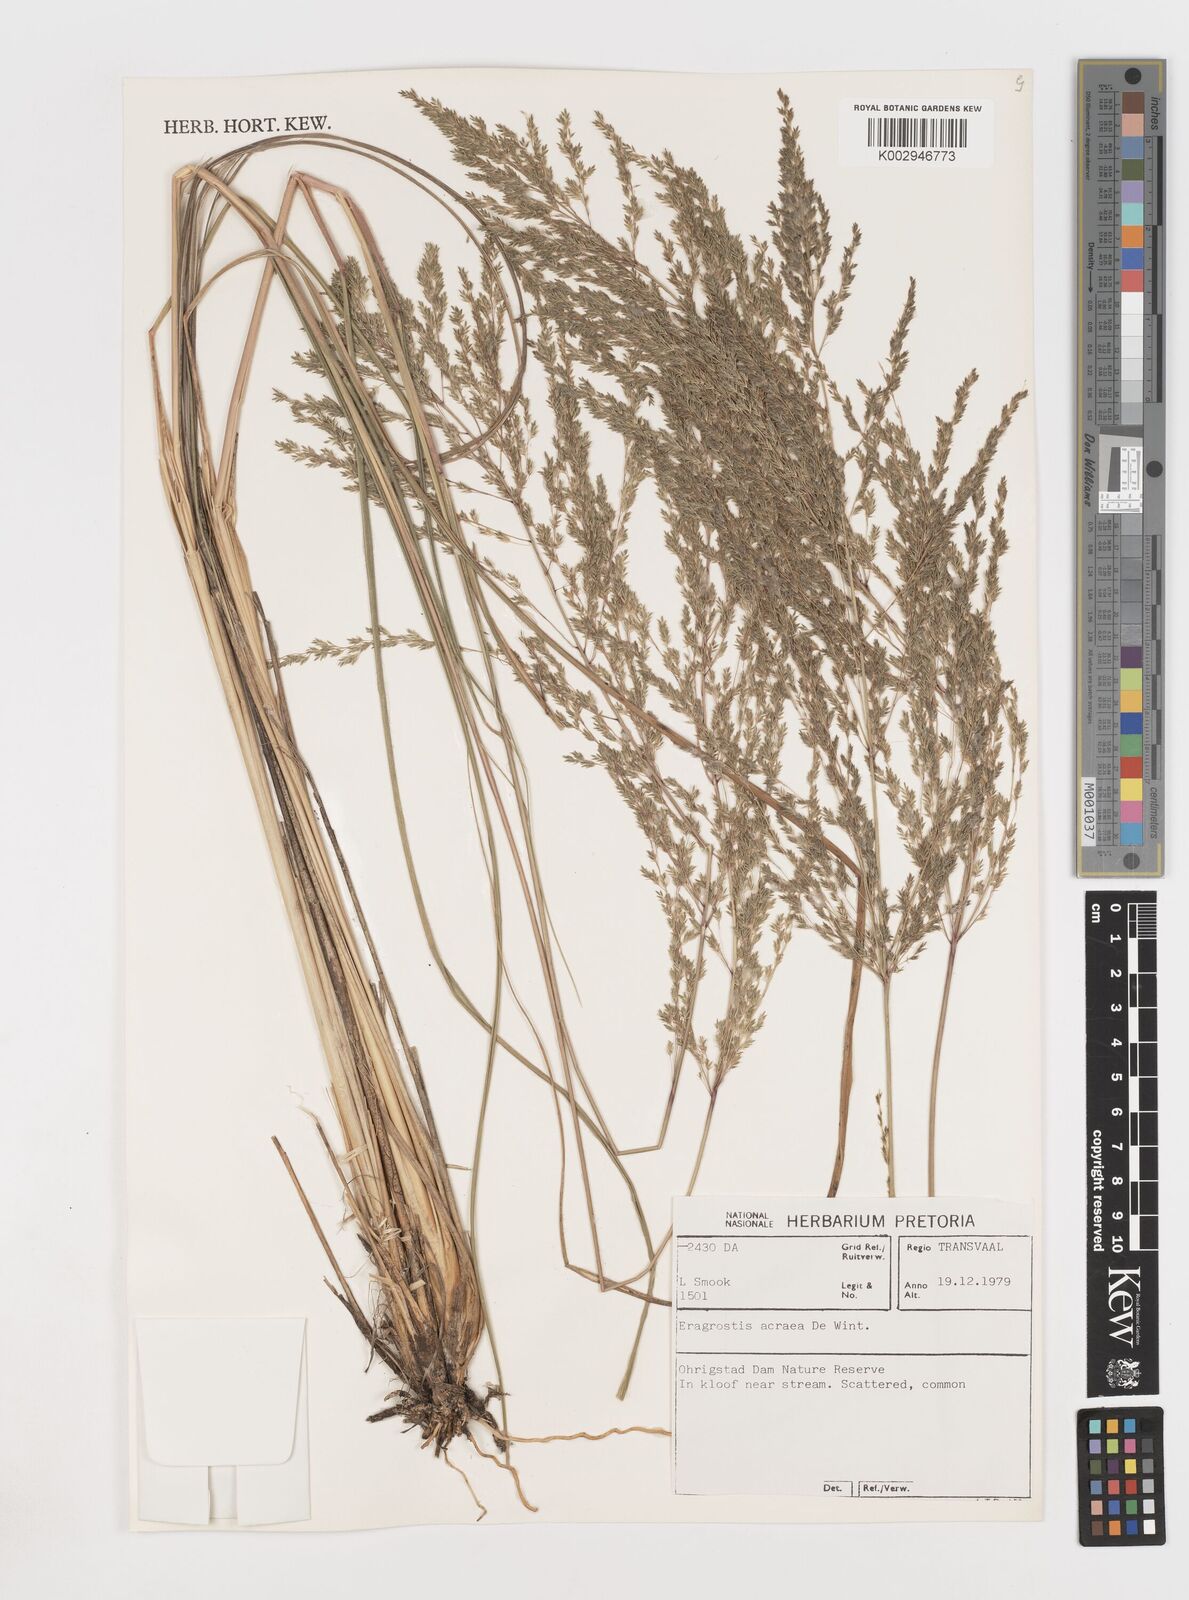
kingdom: Plantae
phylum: Tracheophyta
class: Liliopsida
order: Poales
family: Poaceae
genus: Eragrostis
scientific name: Eragrostis acraea
